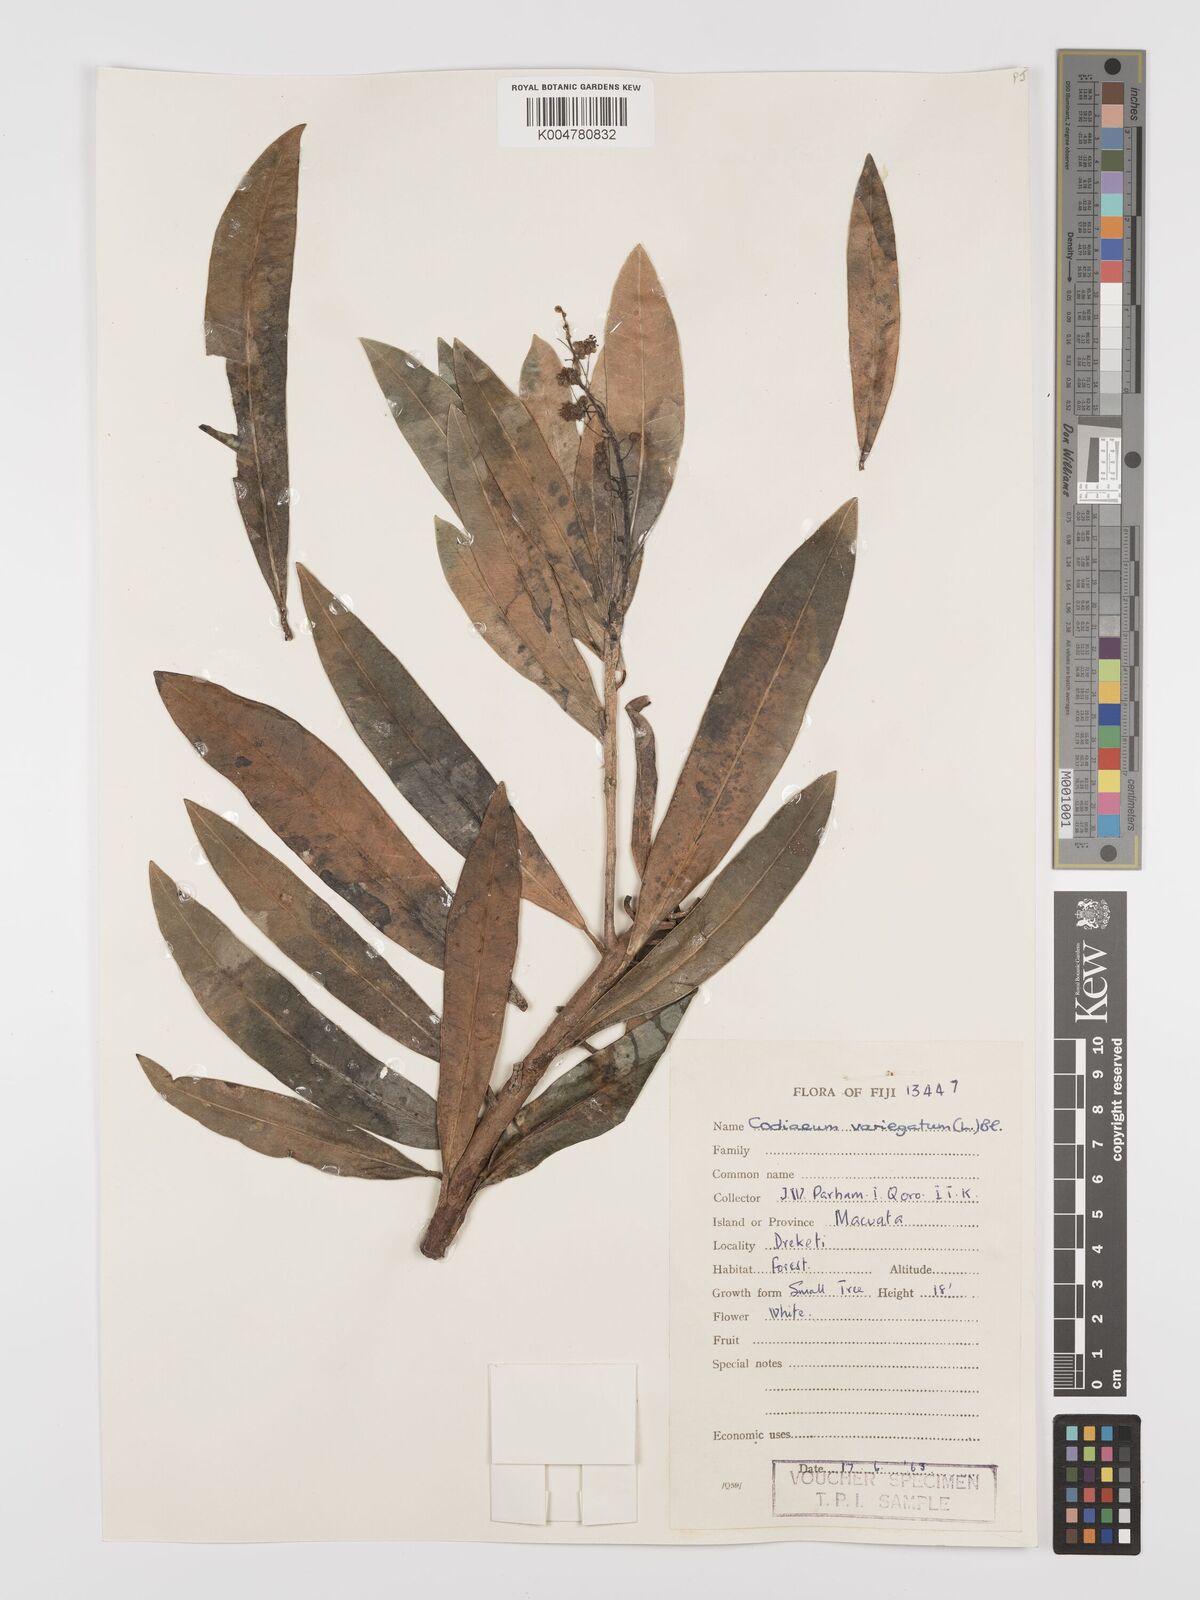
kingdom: Plantae
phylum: Tracheophyta
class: Magnoliopsida
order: Malpighiales
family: Euphorbiaceae
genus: Codiaeum
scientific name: Codiaeum variegatum
